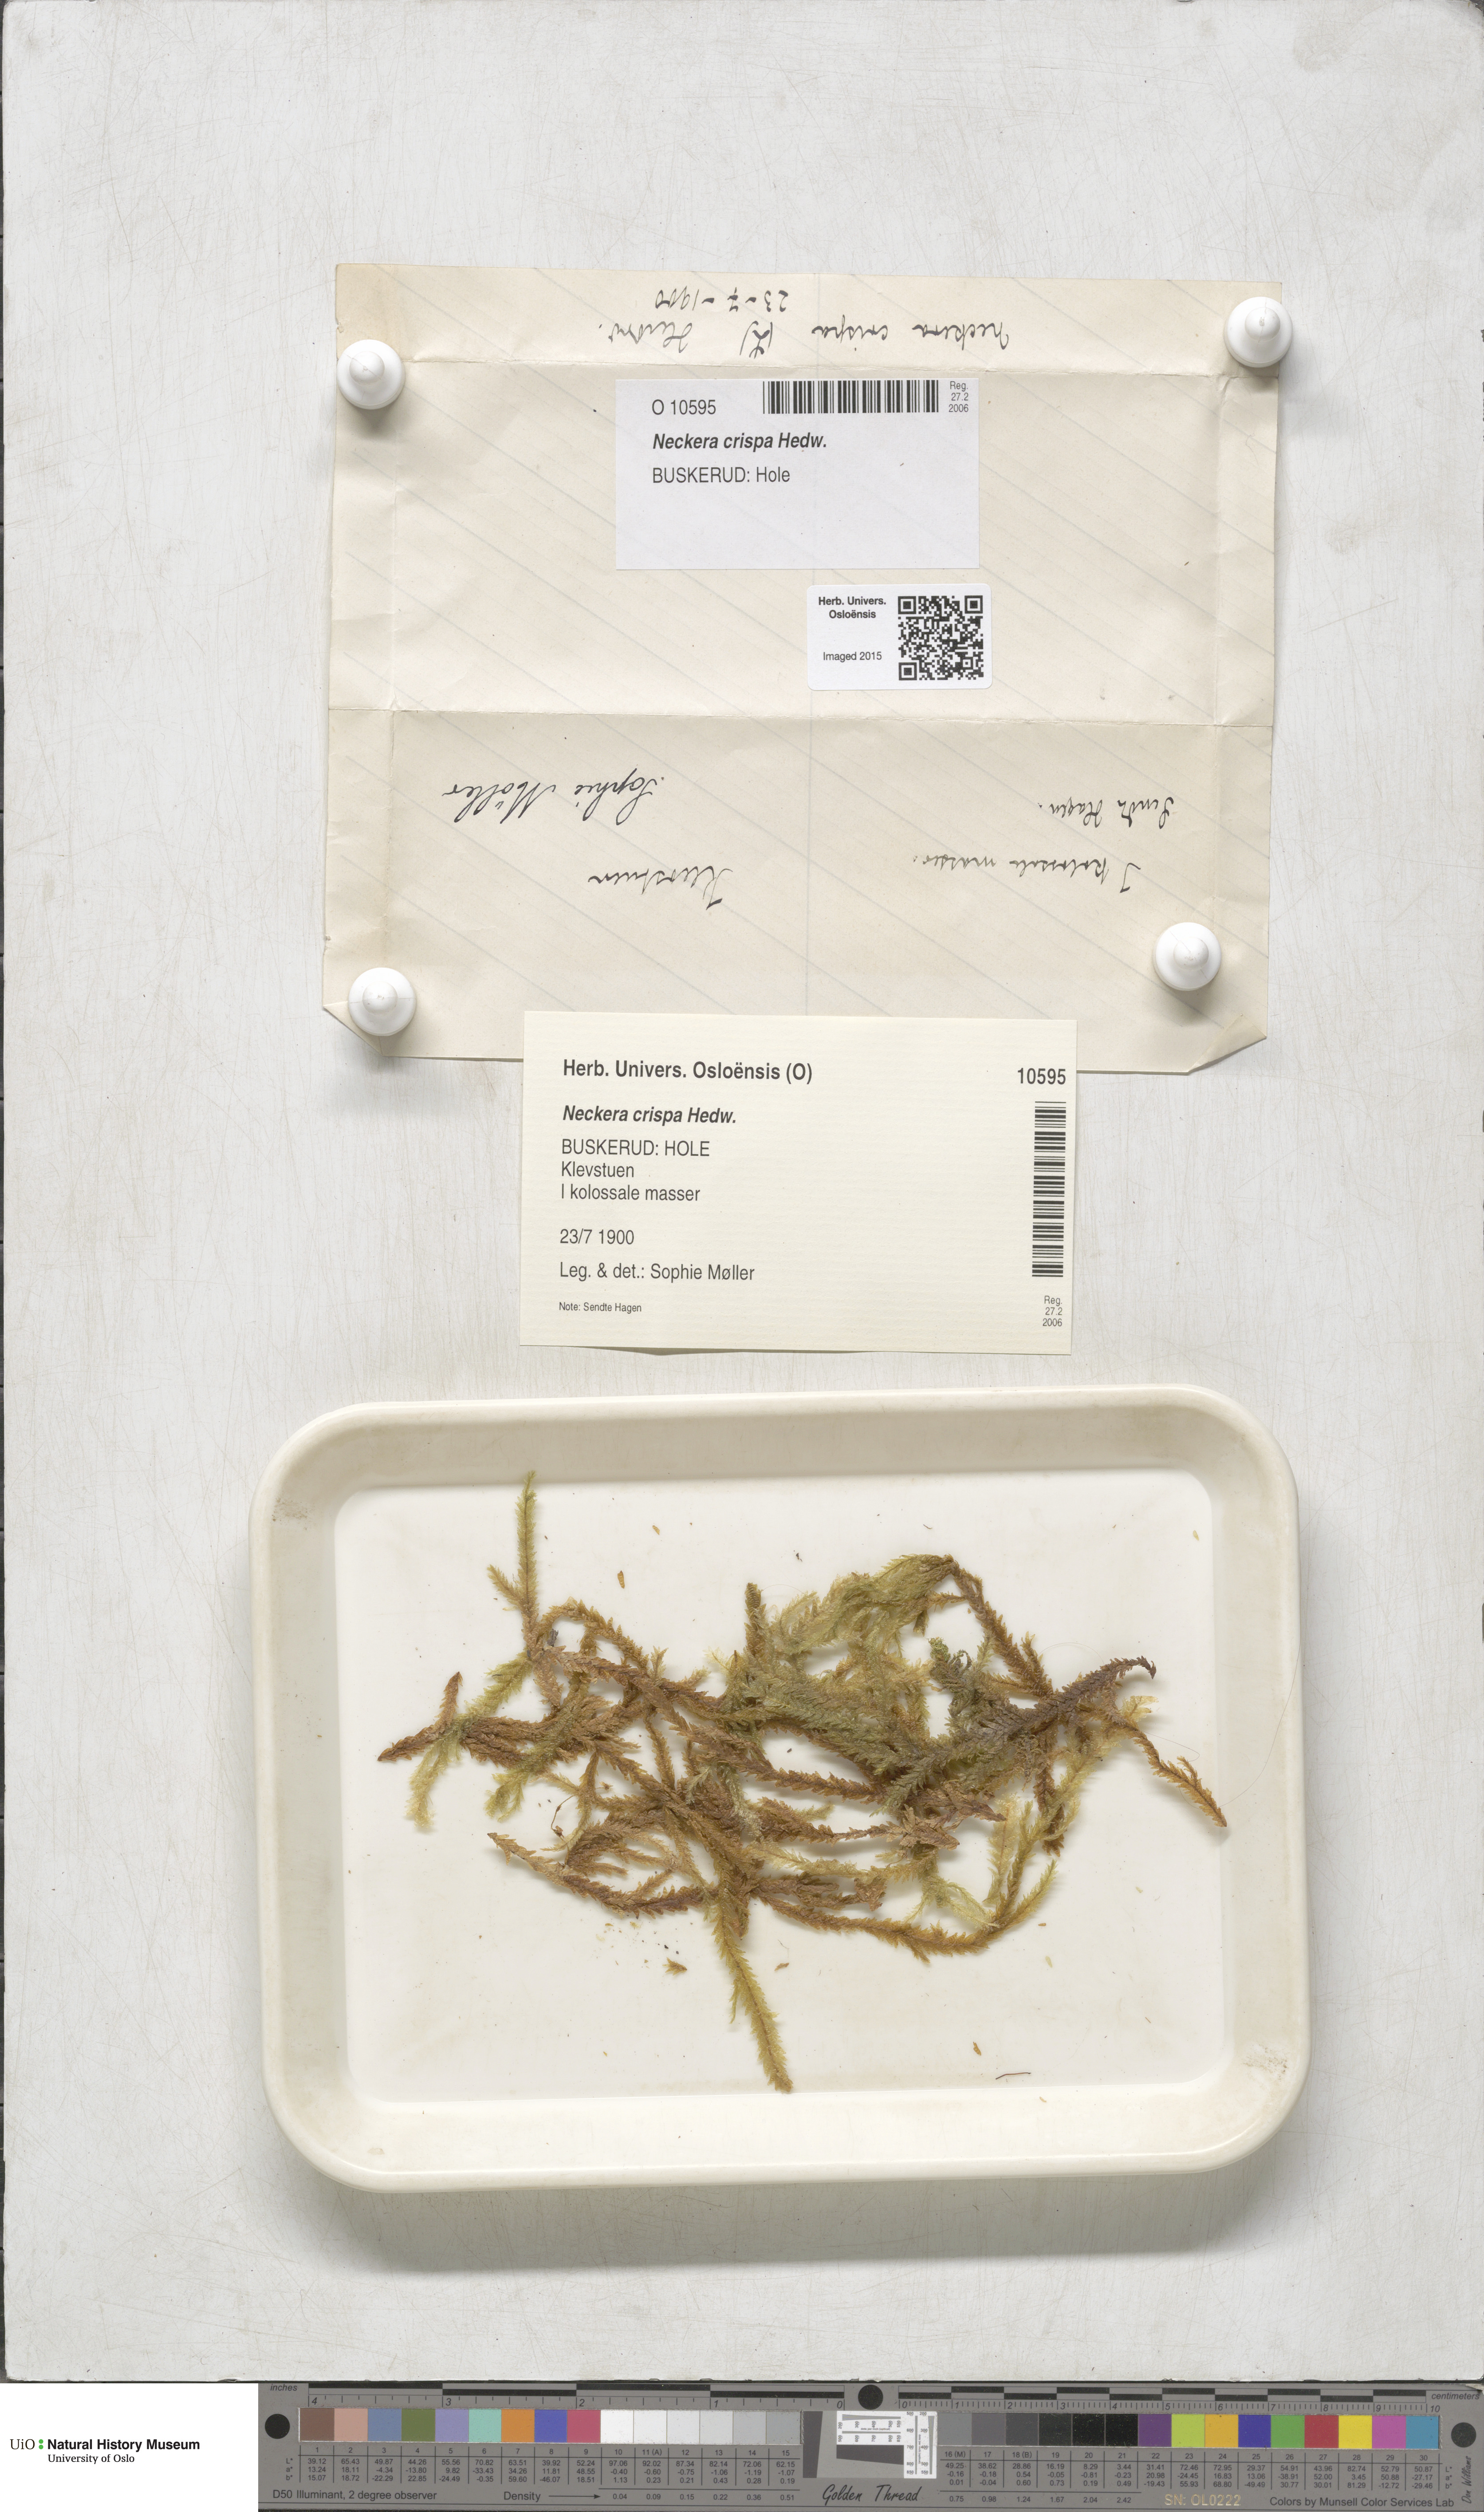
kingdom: Plantae
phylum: Bryophyta
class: Bryopsida
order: Hypnales
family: Neckeraceae
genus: Exsertotheca
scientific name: Exsertotheca crispa
